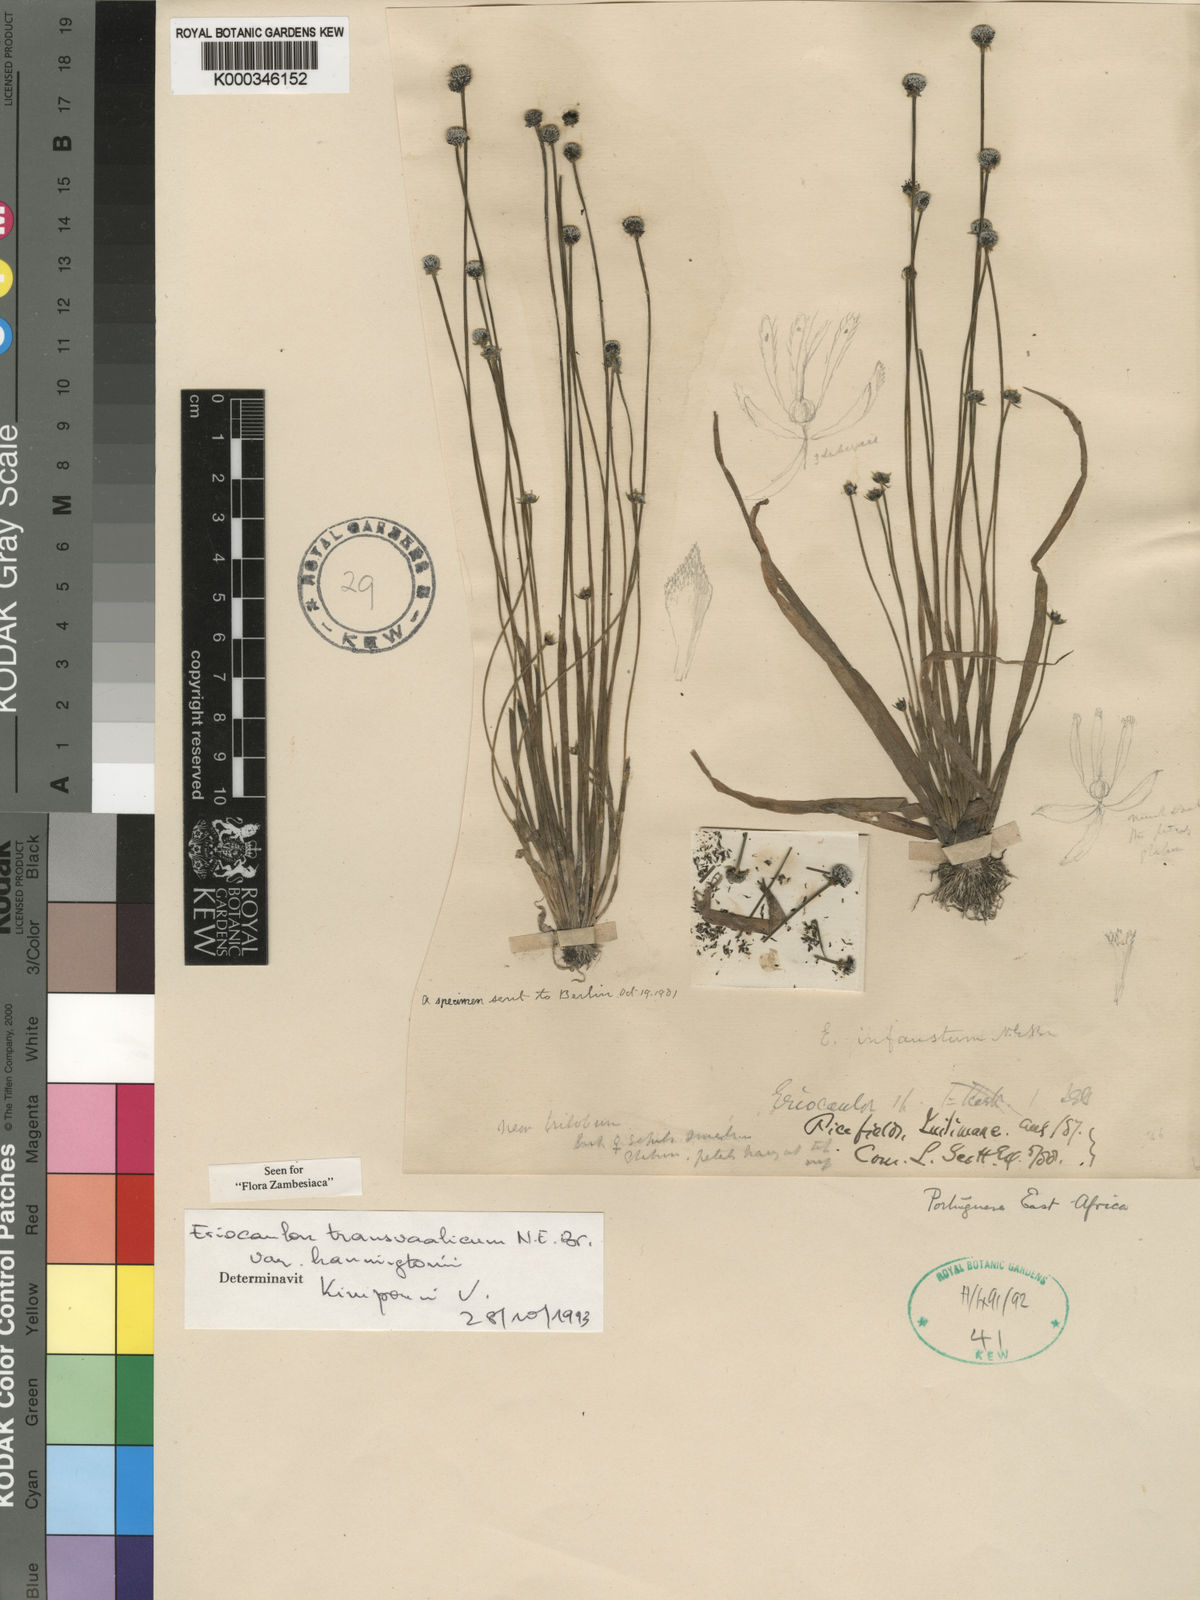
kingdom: Plantae
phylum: Tracheophyta
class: Liliopsida
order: Poales
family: Eriocaulaceae
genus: Eriocaulon
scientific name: Eriocaulon bongense
